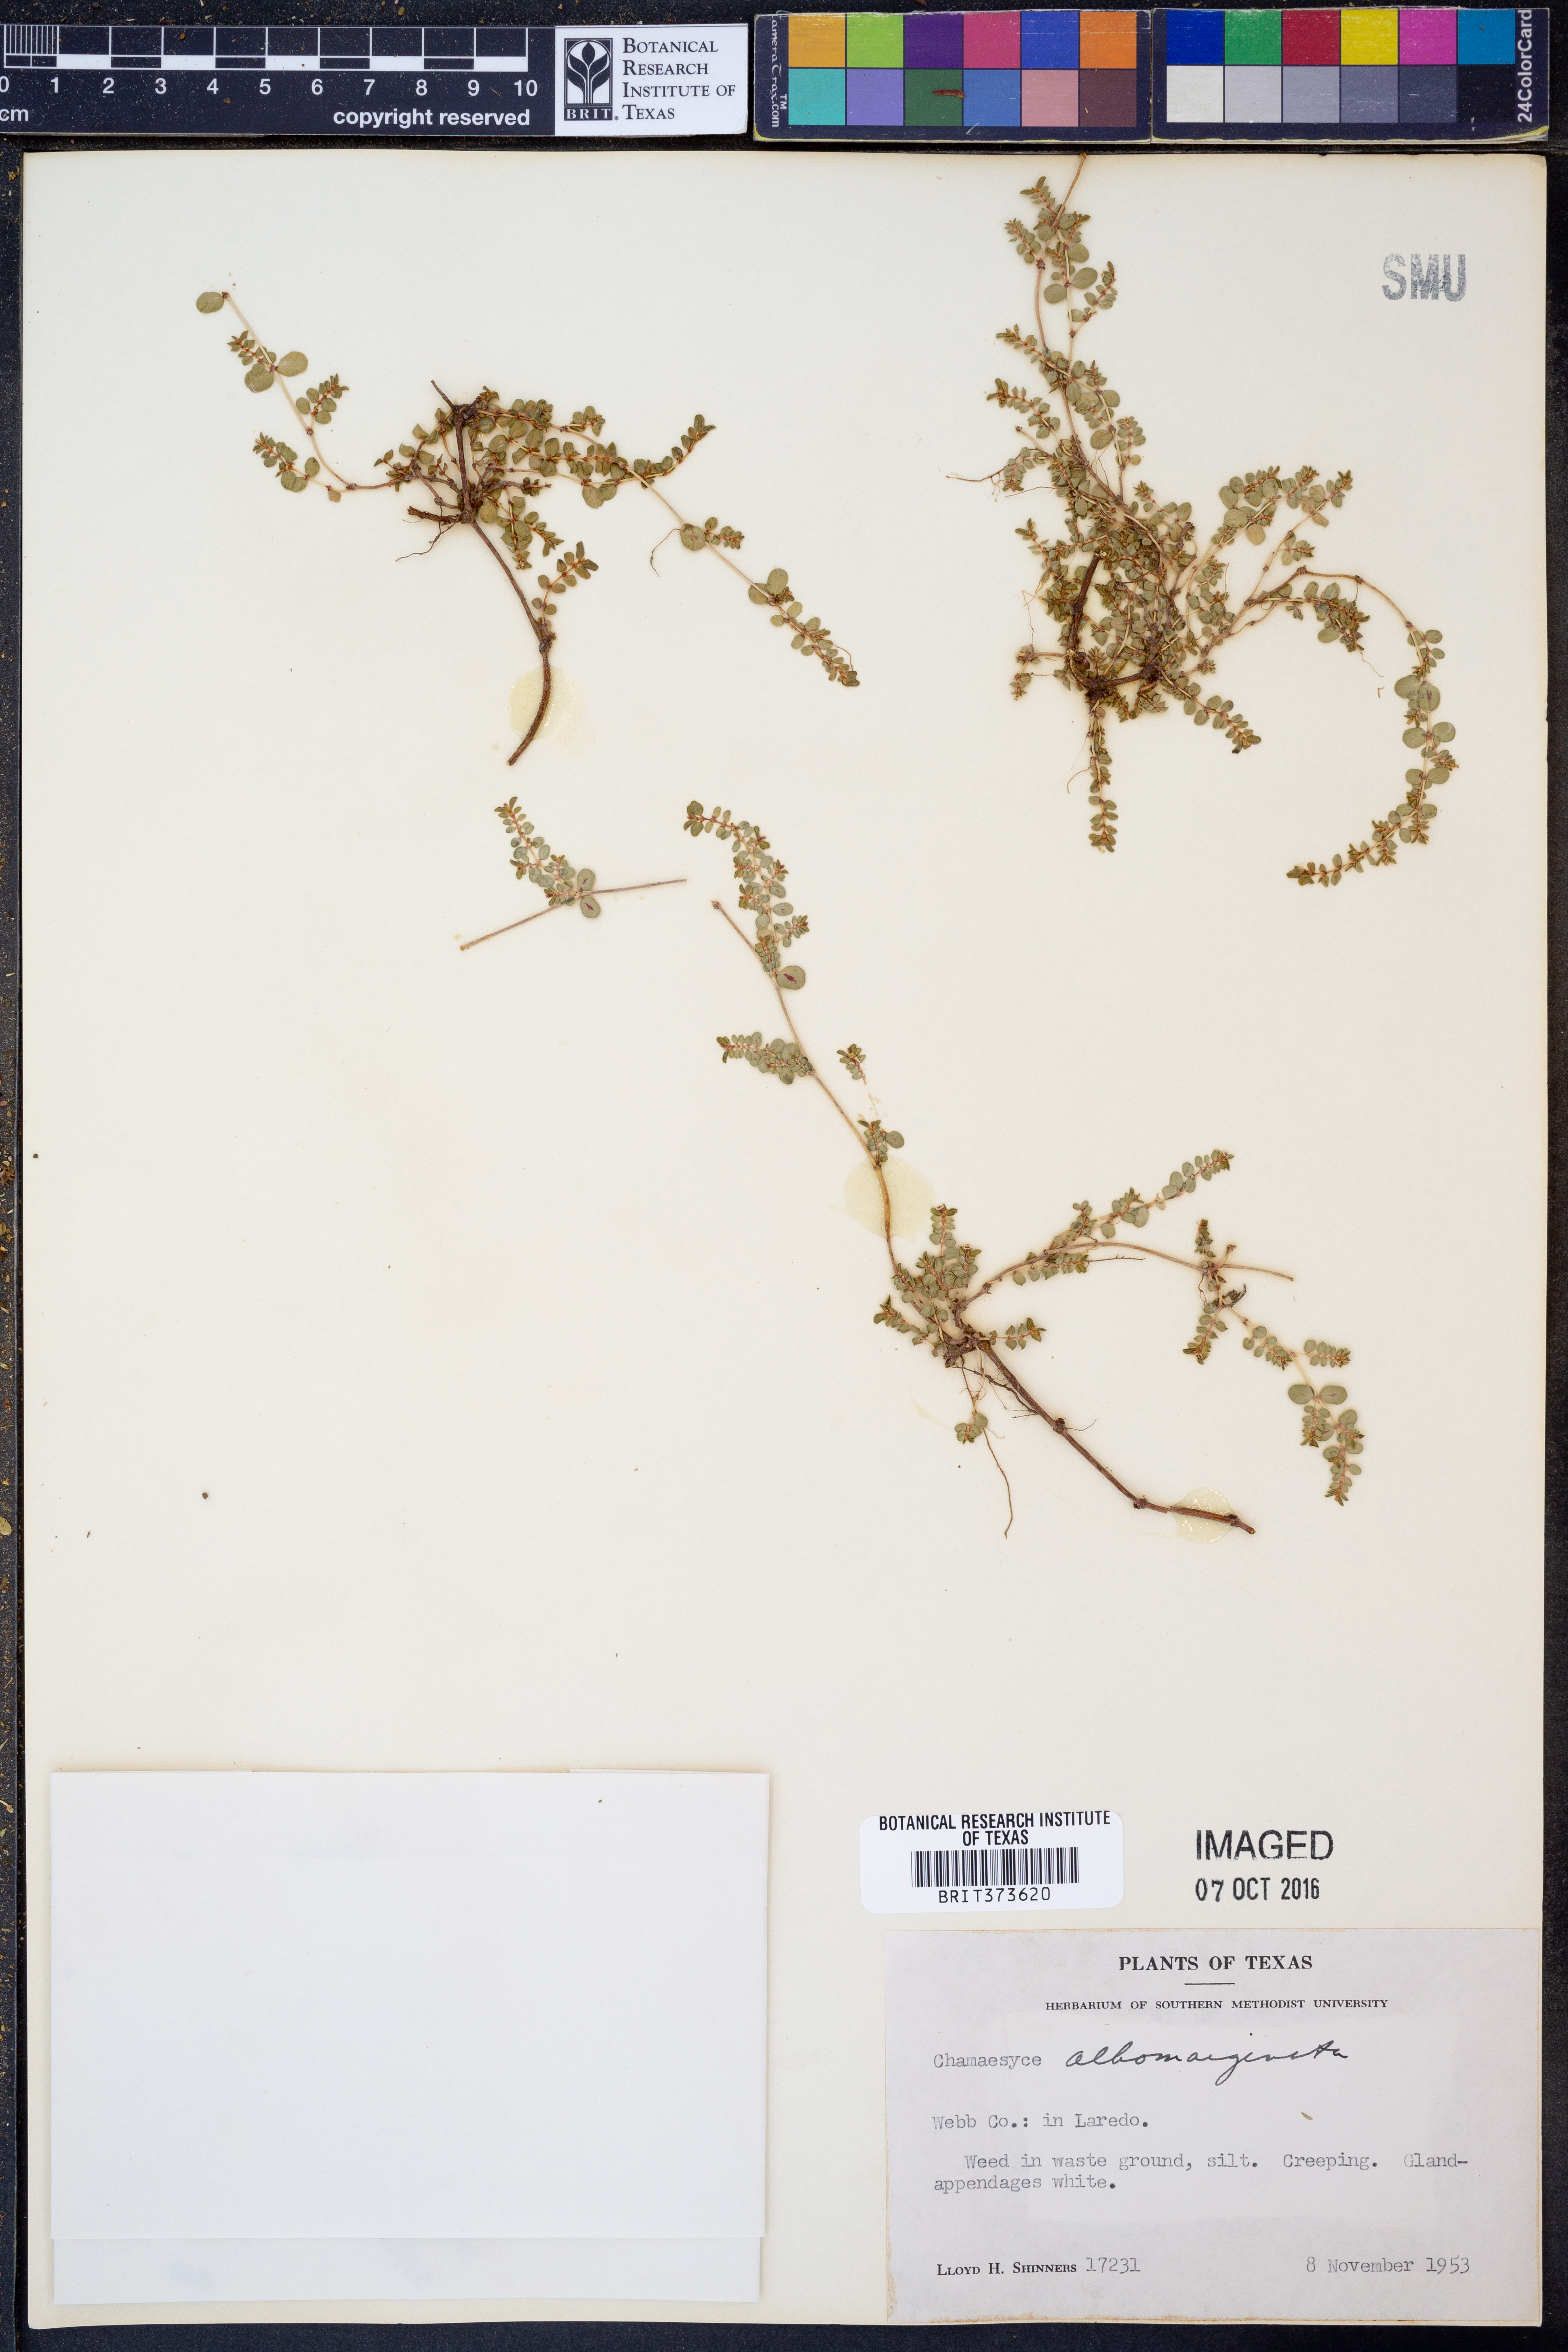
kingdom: Plantae
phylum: Tracheophyta
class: Magnoliopsida
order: Malpighiales
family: Euphorbiaceae
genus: Euphorbia
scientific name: Euphorbia albomarginata
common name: Whitemargin sandmat
